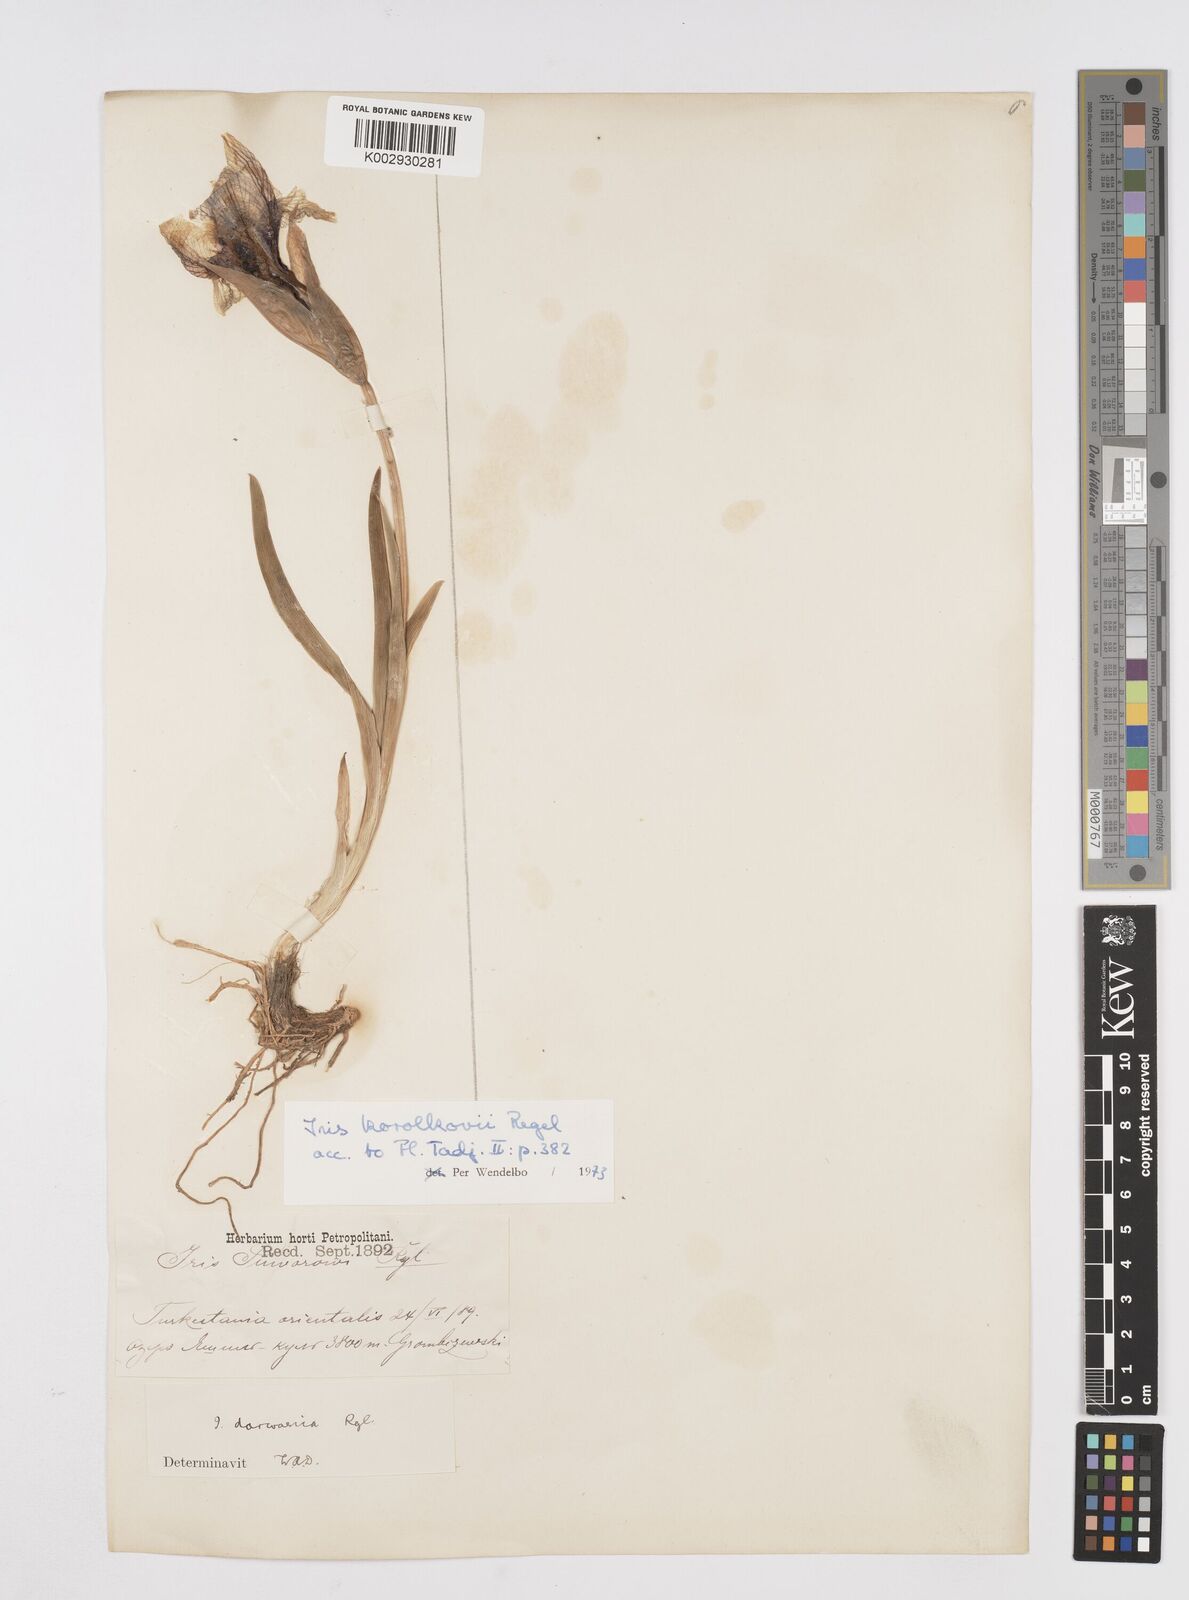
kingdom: Plantae
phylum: Tracheophyta
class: Liliopsida
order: Asparagales
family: Iridaceae
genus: Iris
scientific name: Iris korolkowii
